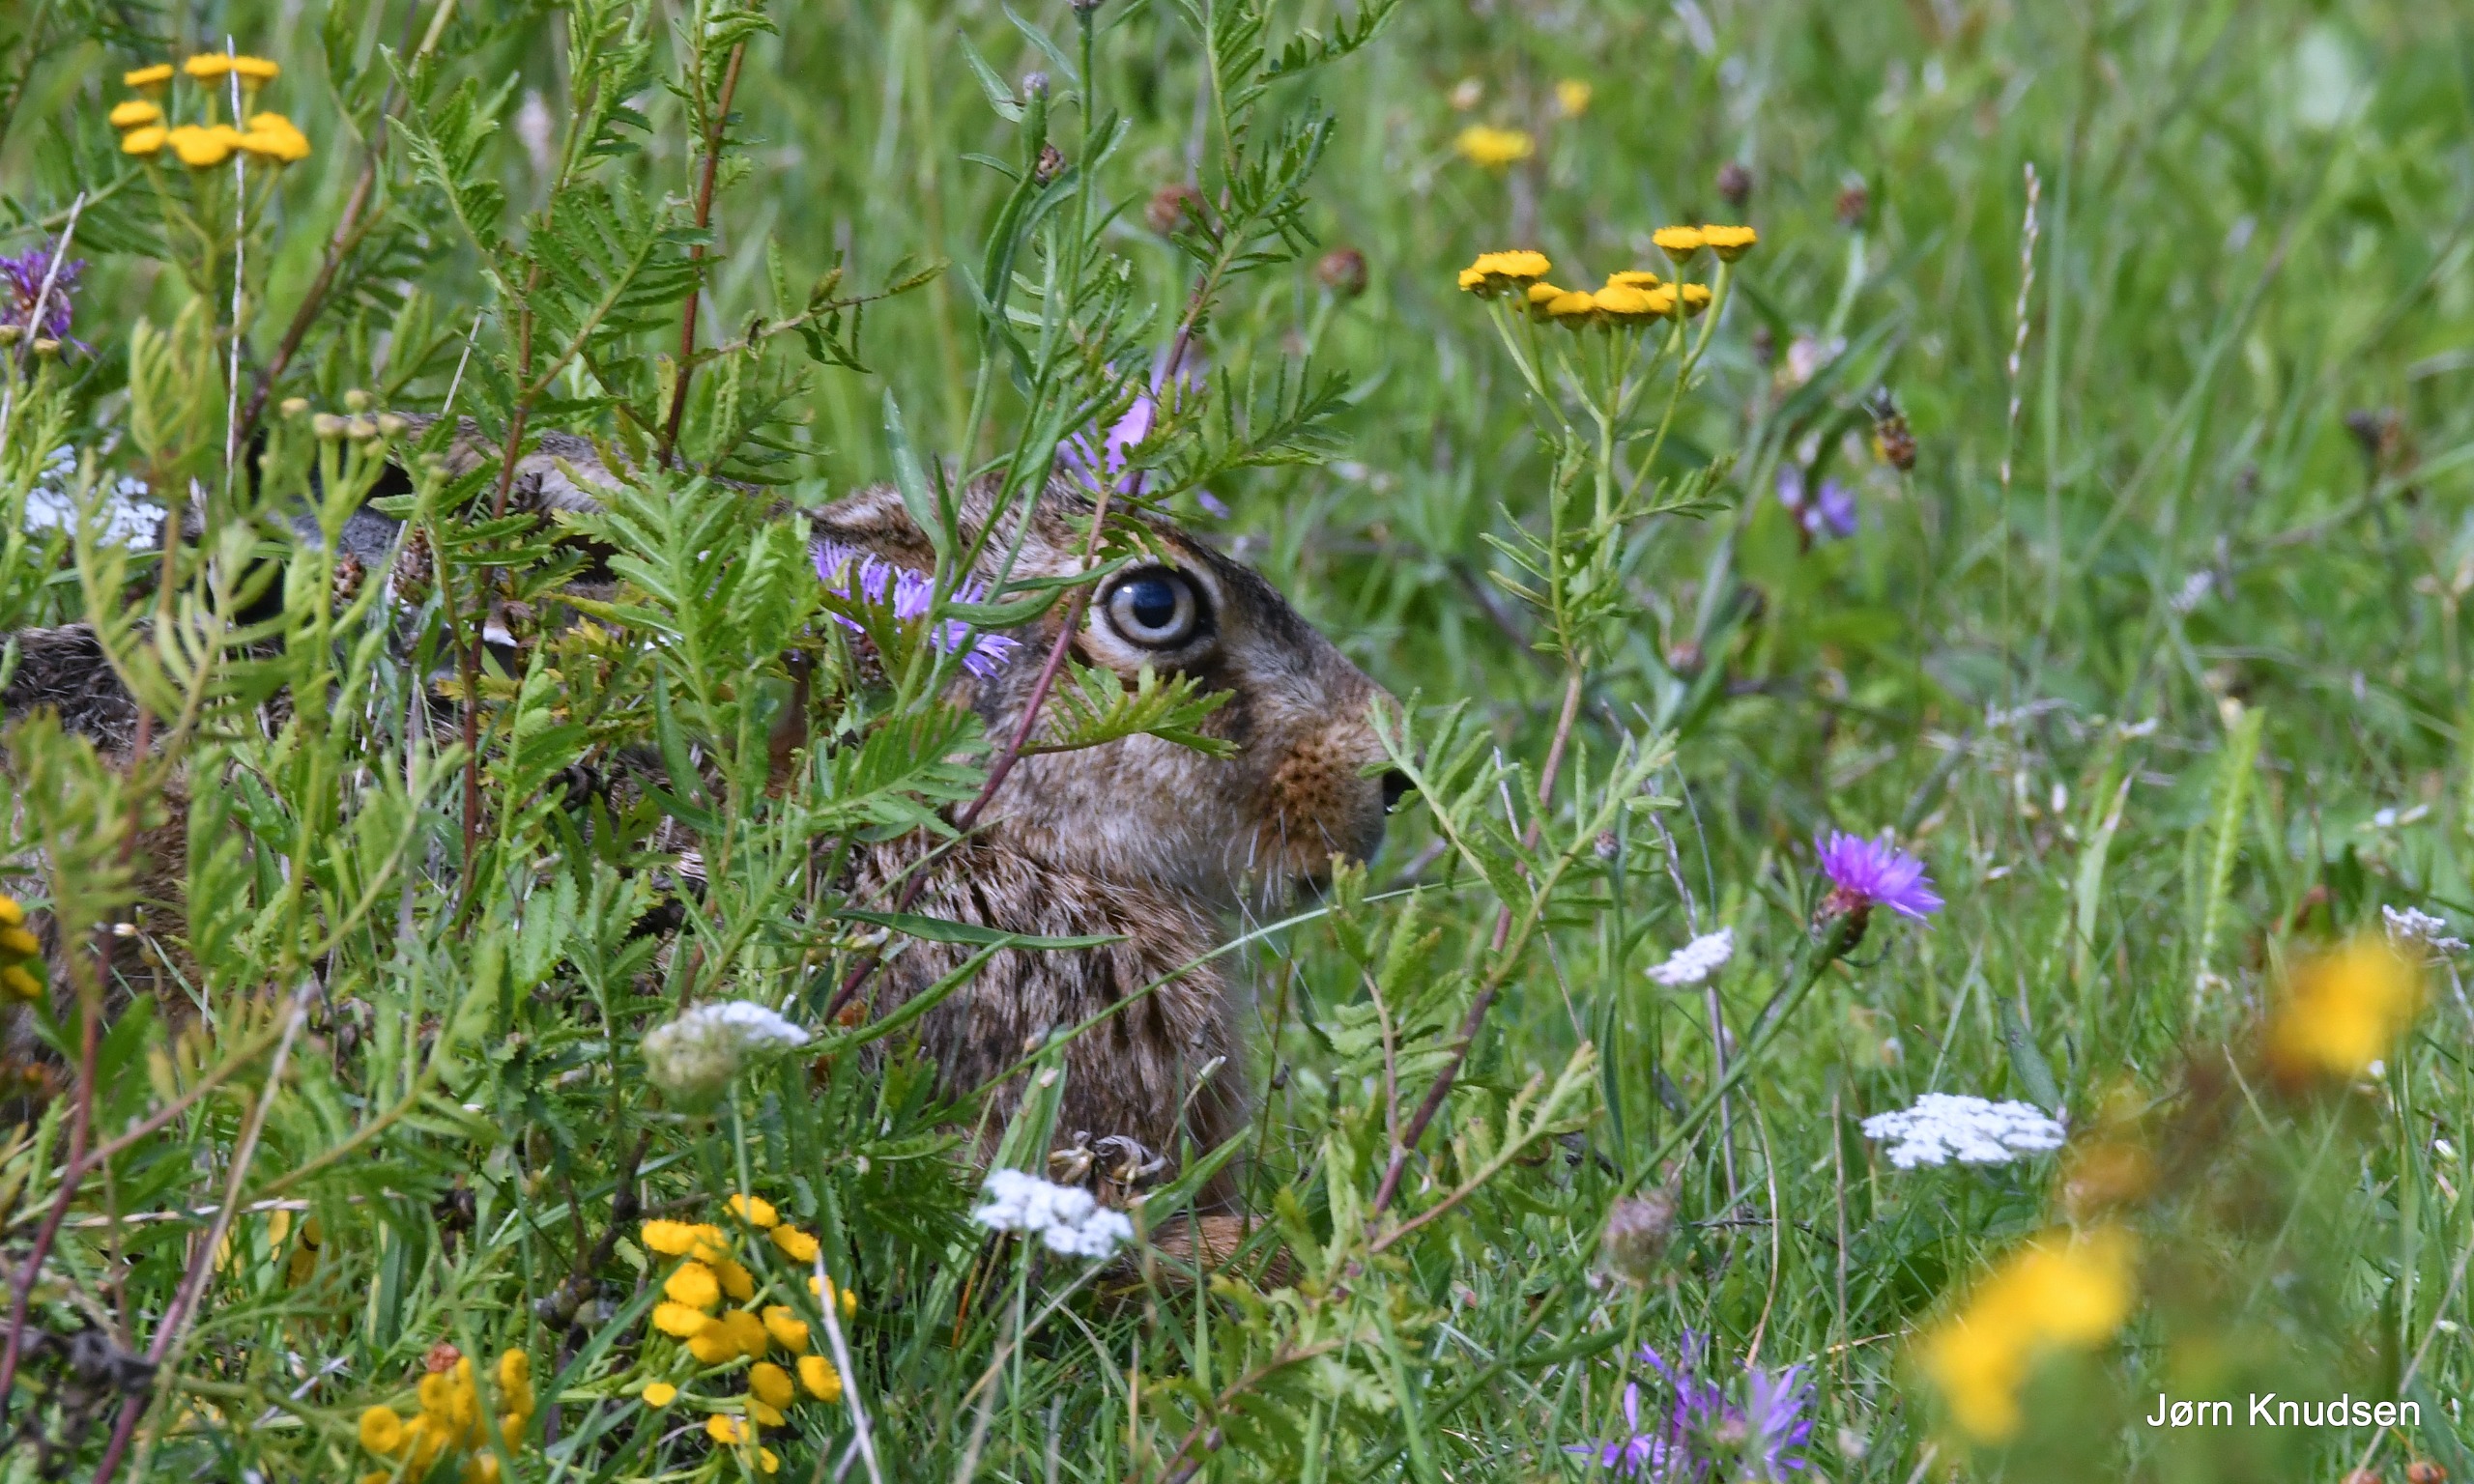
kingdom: Animalia
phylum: Chordata
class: Mammalia
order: Lagomorpha
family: Leporidae
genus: Lepus
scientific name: Lepus europaeus
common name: Hare
